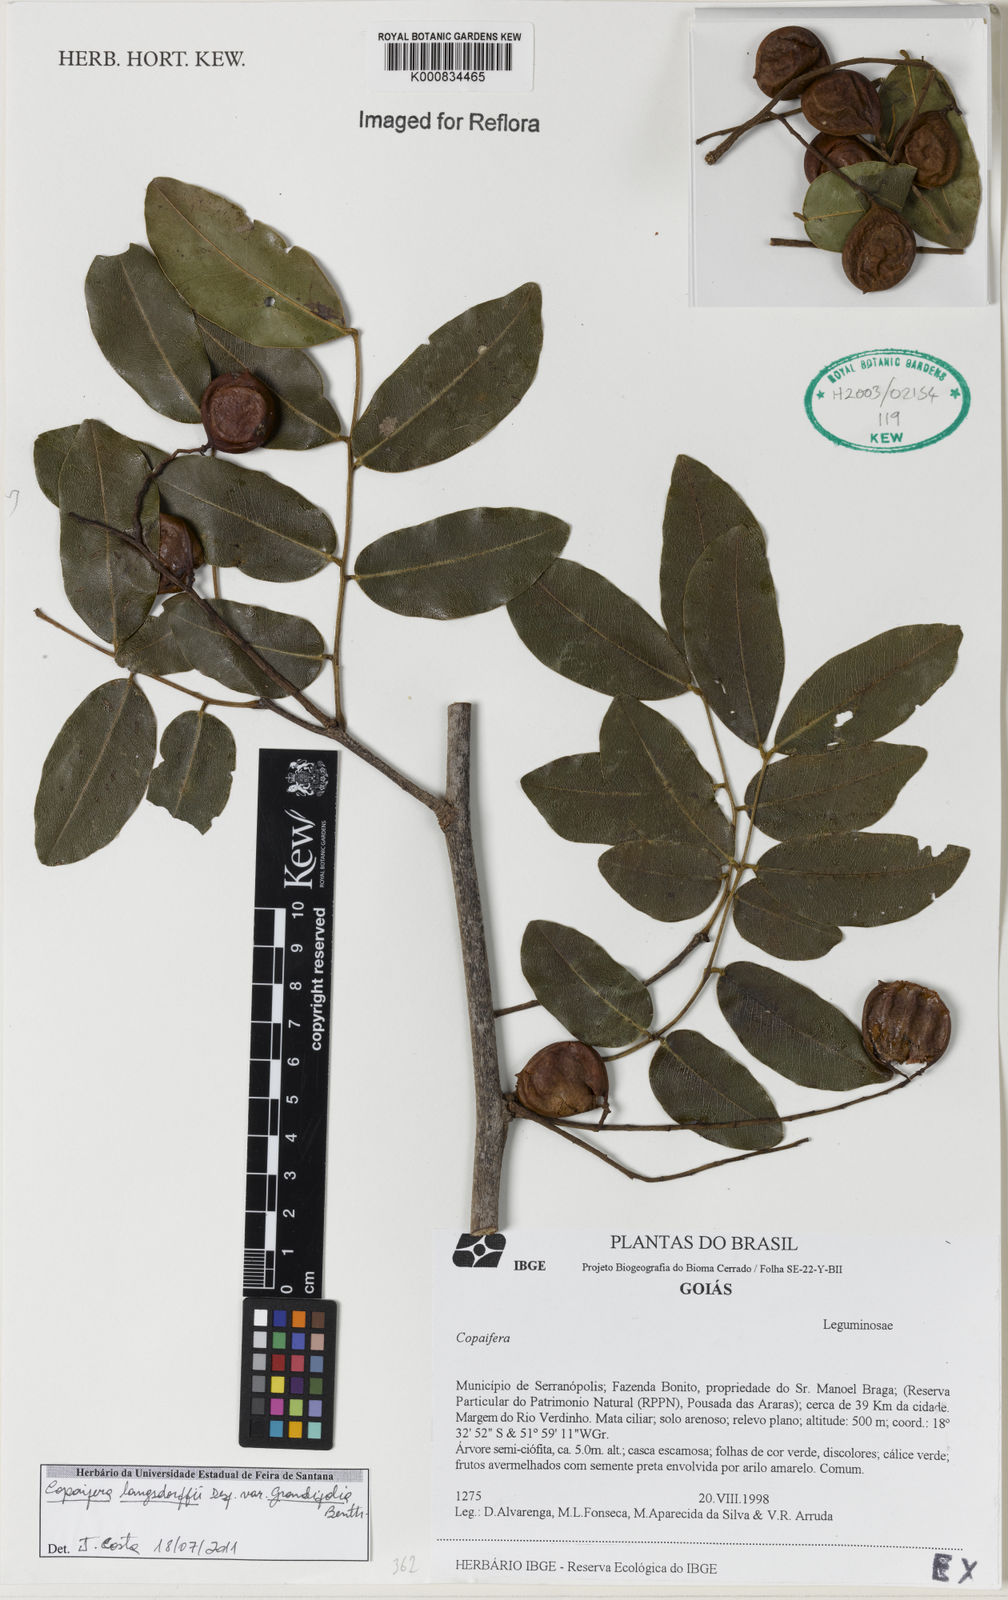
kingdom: Plantae
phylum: Tracheophyta
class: Magnoliopsida
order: Fabales
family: Fabaceae
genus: Copaifera
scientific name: Copaifera langsdorffii
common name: Brazilian diesel tree
